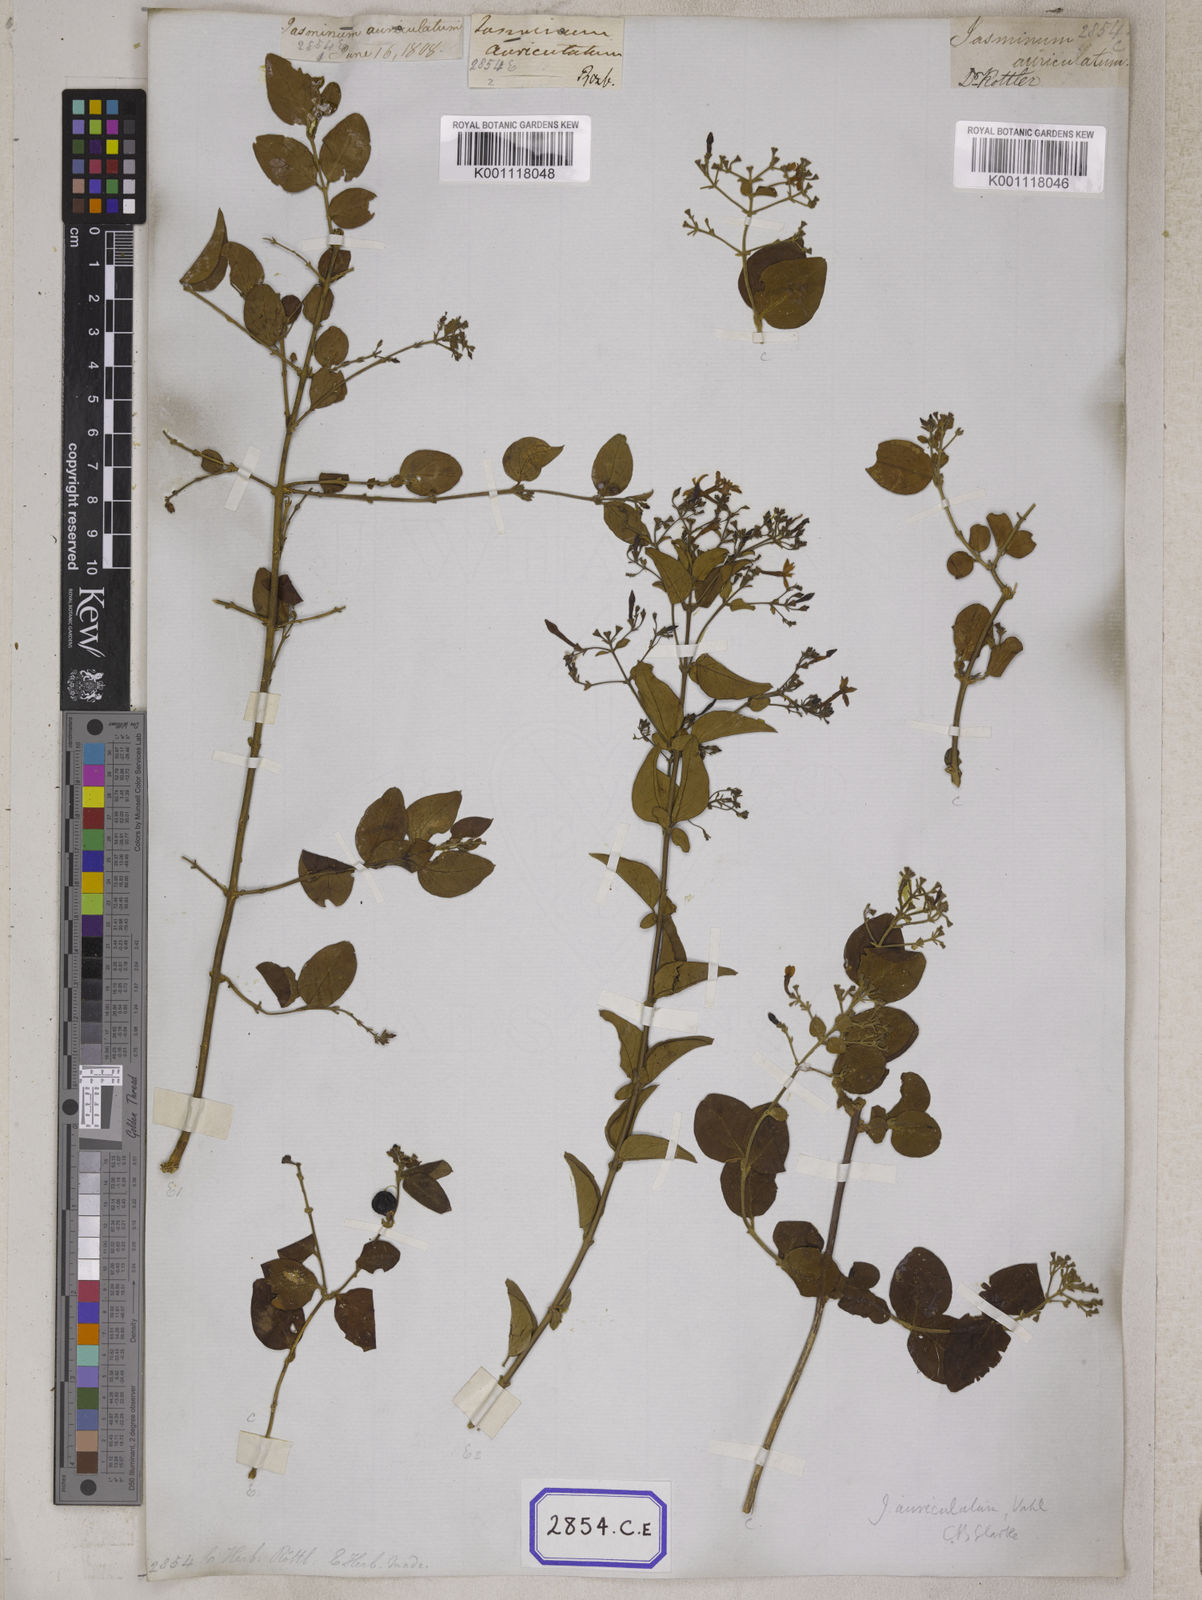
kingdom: Plantae
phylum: Tracheophyta
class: Magnoliopsida
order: Lamiales
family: Oleaceae
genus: Jasminum
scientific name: Jasminum auriculatum
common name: Needle-flower jasmine
